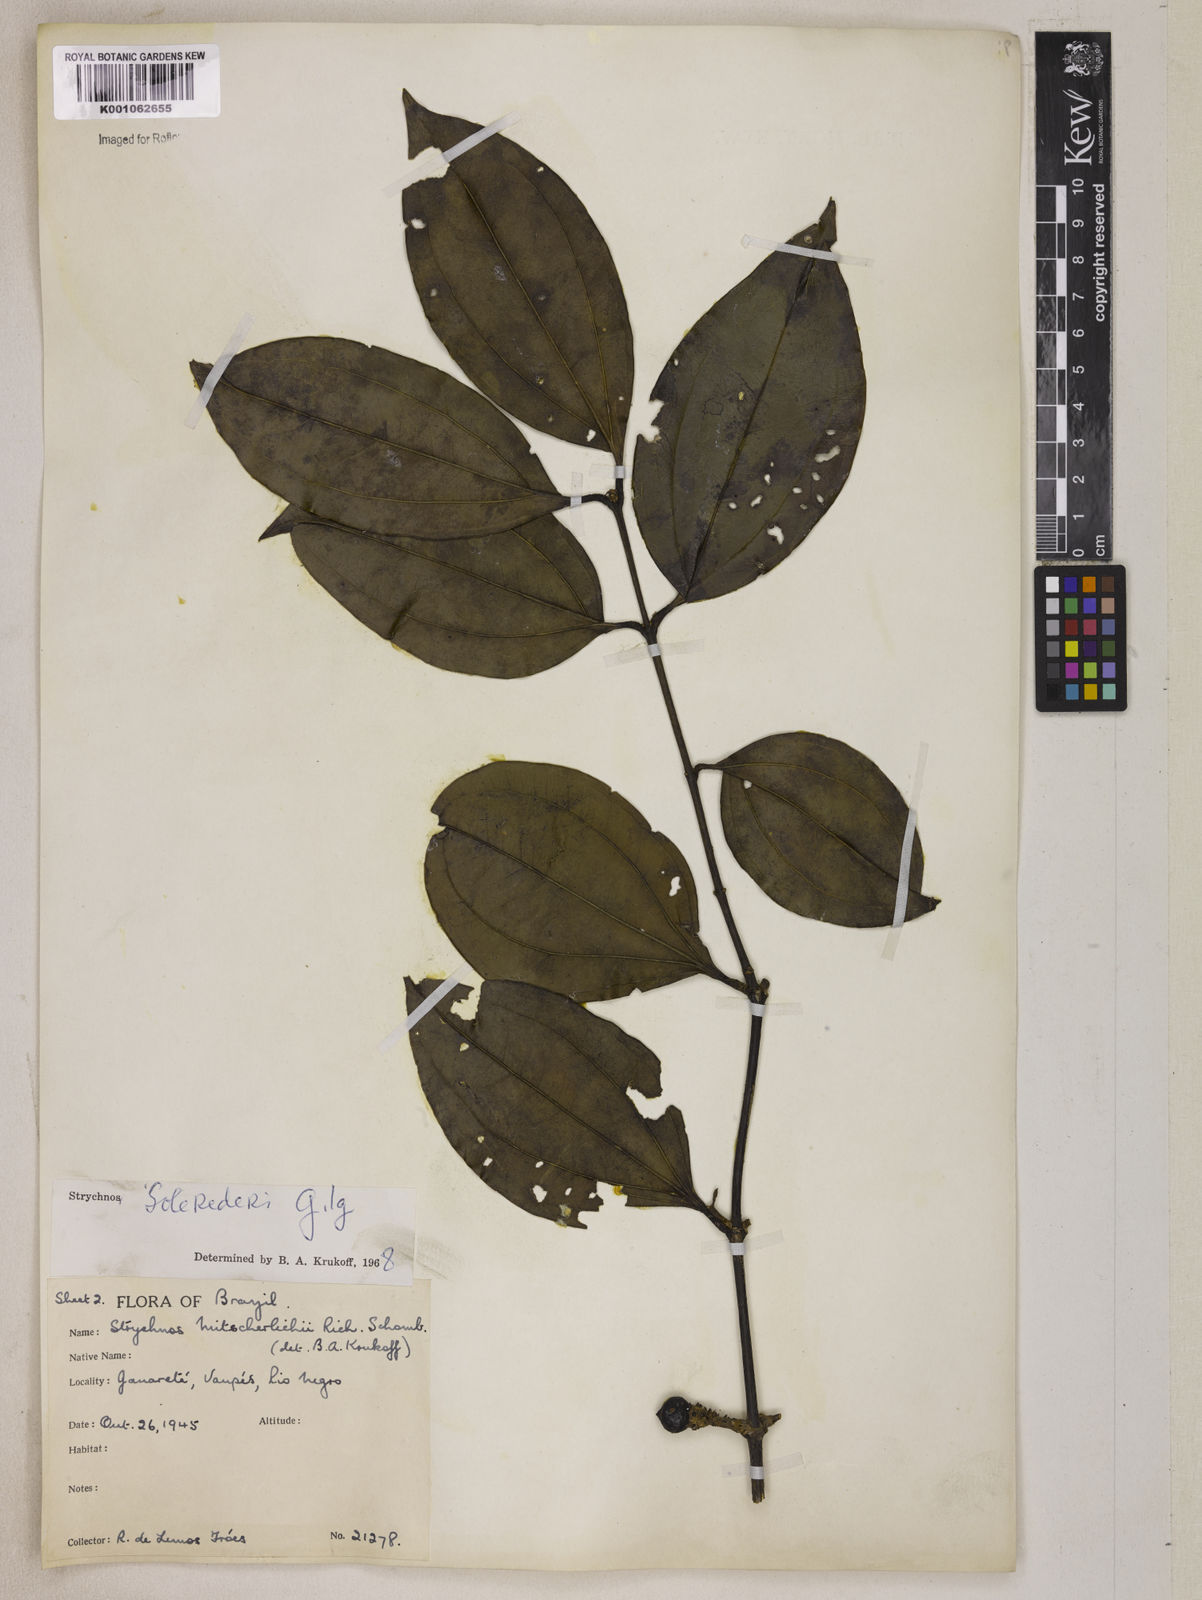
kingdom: Plantae
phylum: Tracheophyta
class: Magnoliopsida
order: Gentianales
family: Loganiaceae
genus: Strychnos
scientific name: Strychnos solerederi
